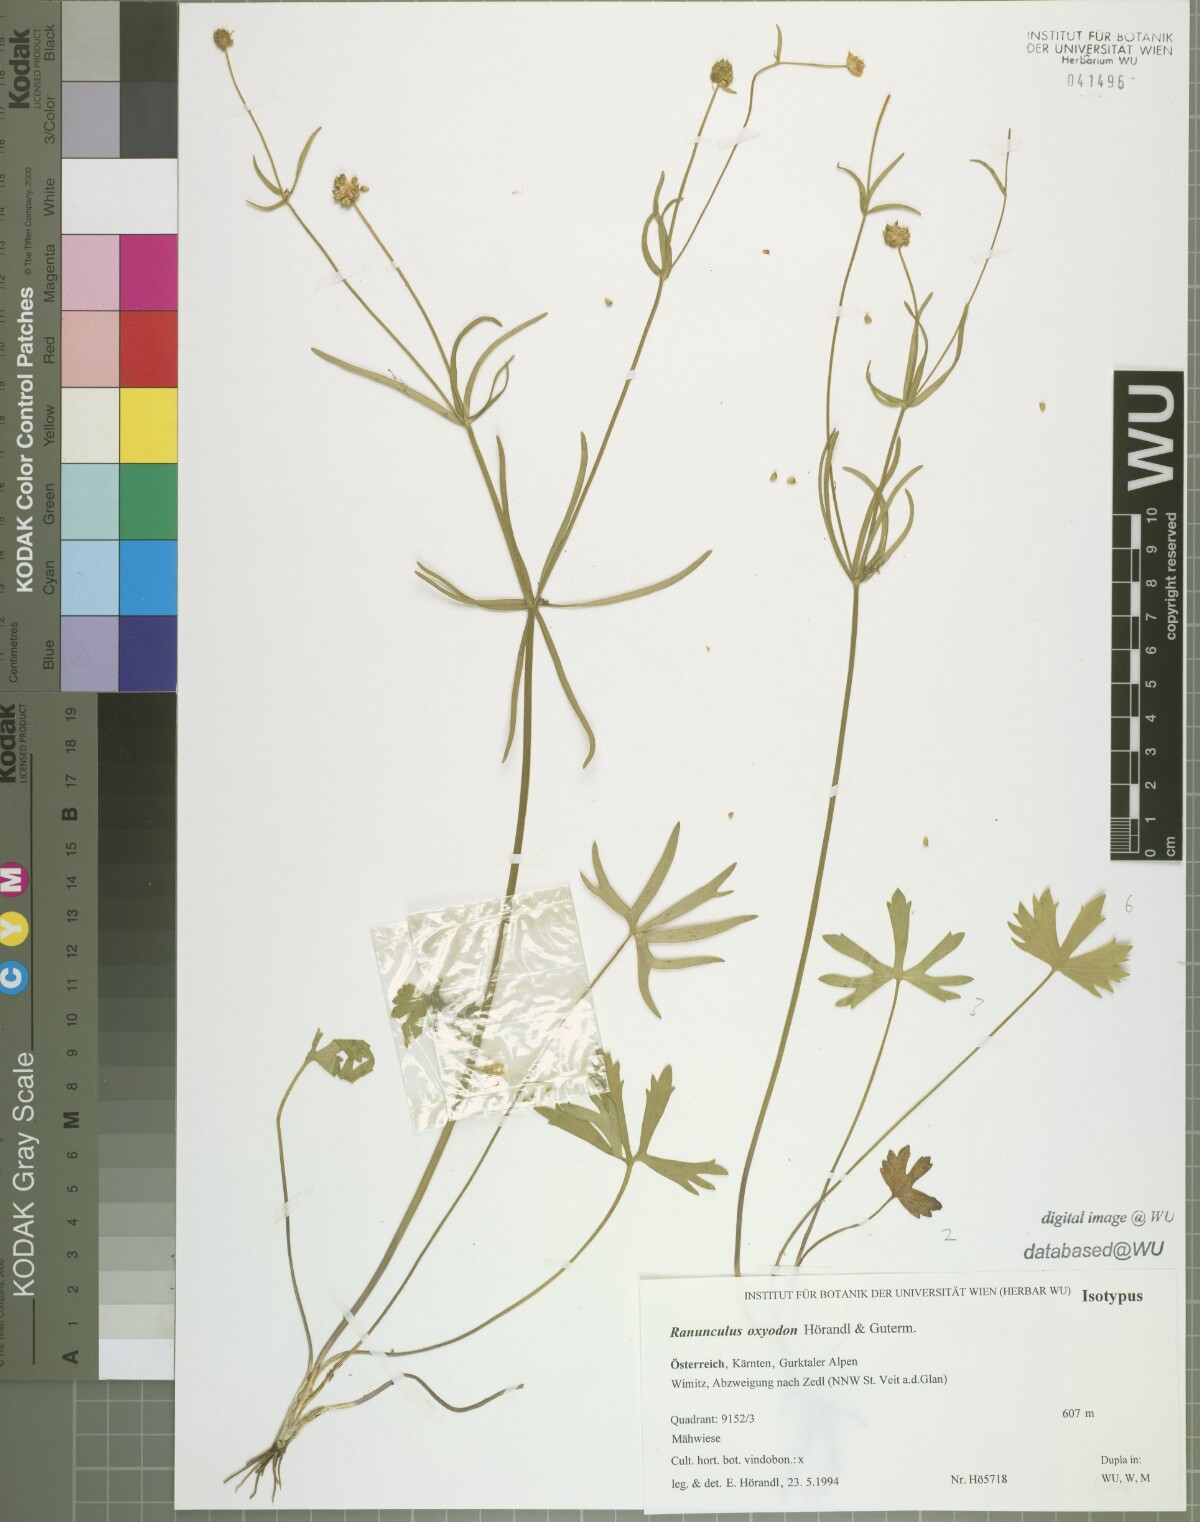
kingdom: Plantae
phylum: Tracheophyta
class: Magnoliopsida
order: Ranunculales
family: Ranunculaceae
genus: Ranunculus
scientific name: Ranunculus oxyodon
